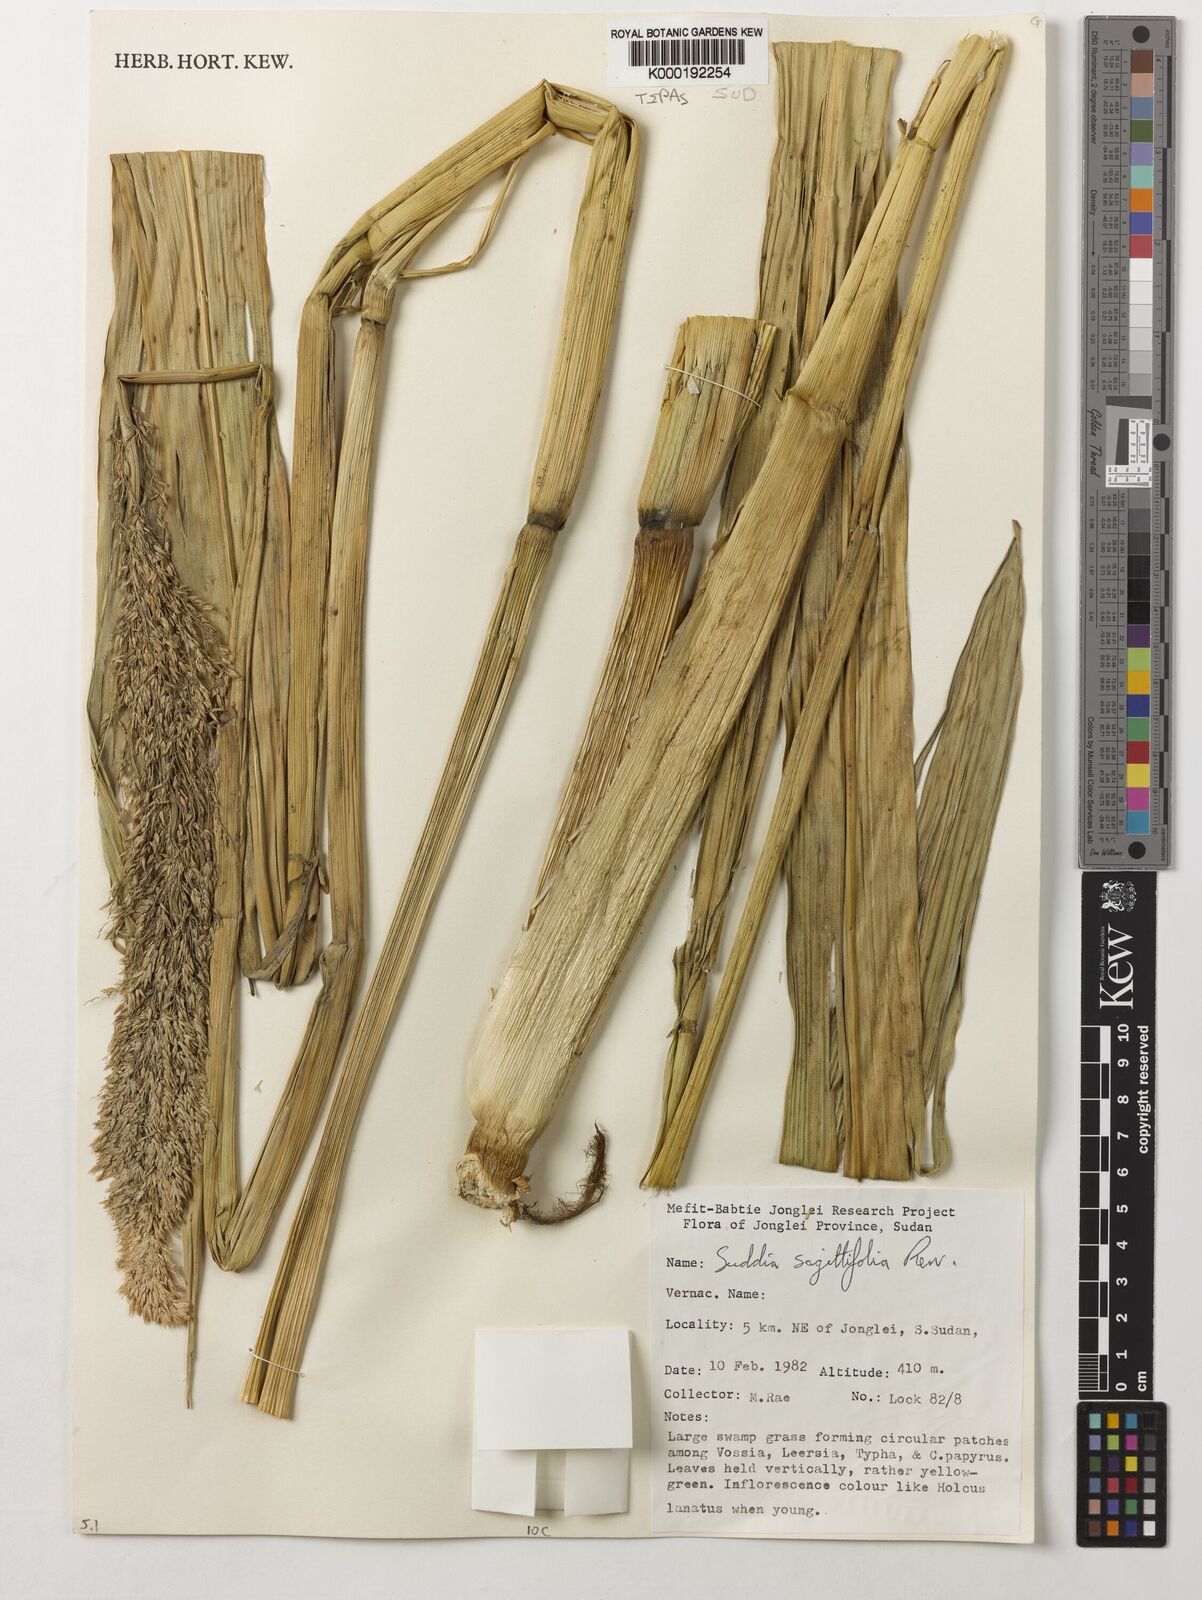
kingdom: Plantae
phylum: Tracheophyta
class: Liliopsida
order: Poales
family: Poaceae
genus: Suddia
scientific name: Suddia sagittifolia
